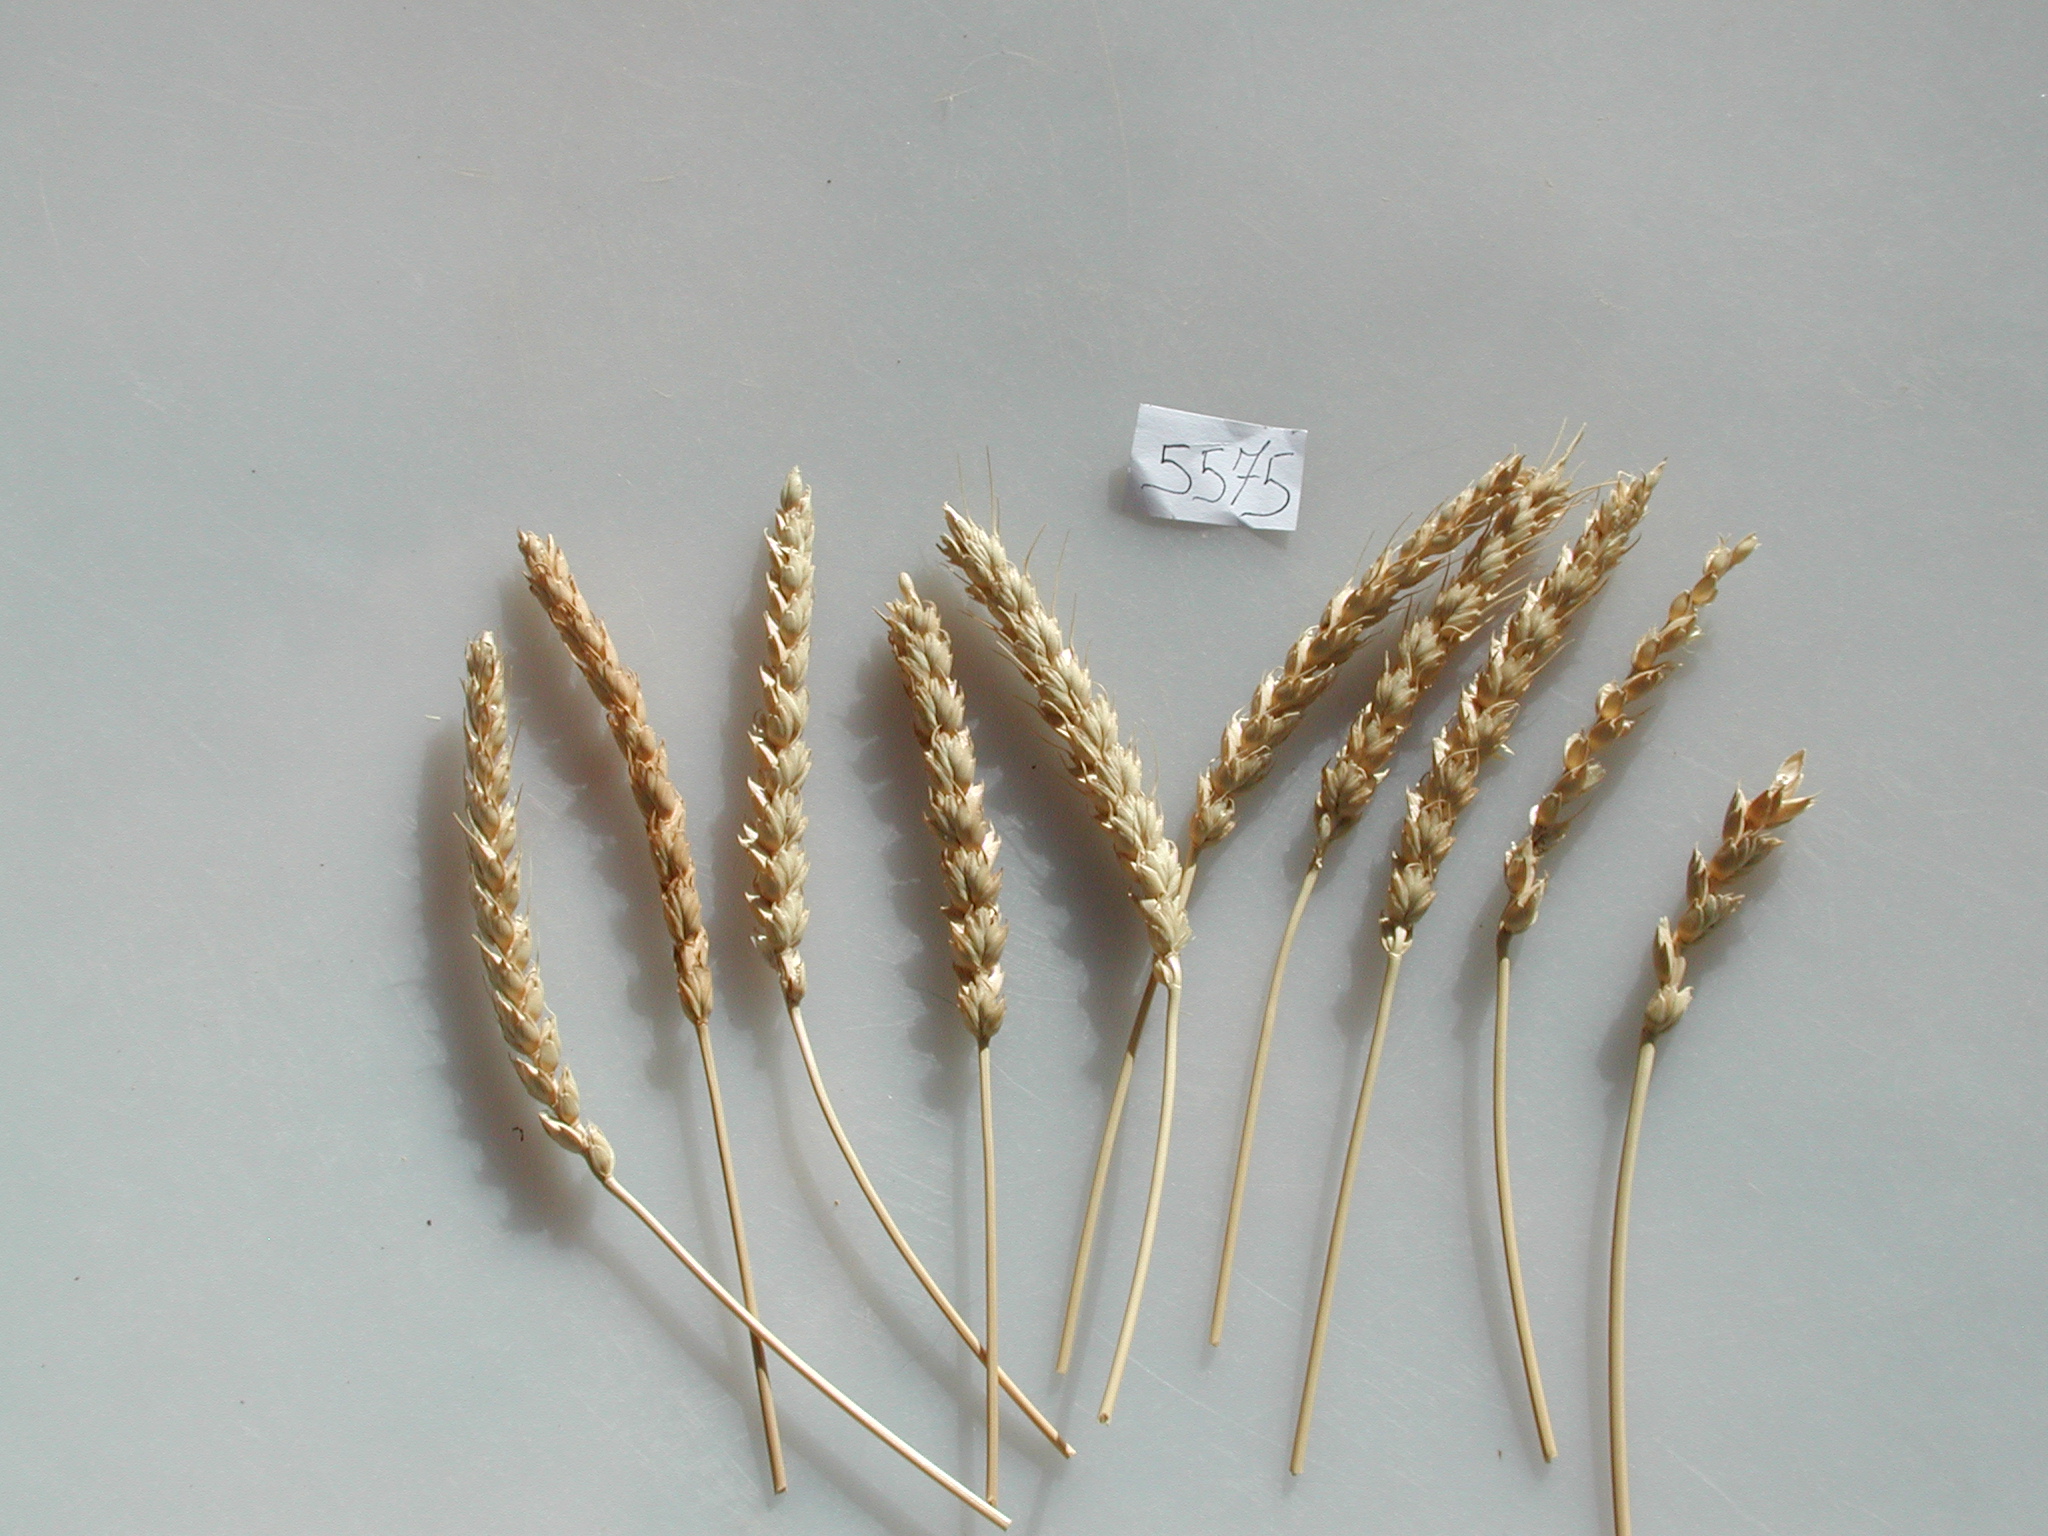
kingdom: Plantae
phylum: Tracheophyta
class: Liliopsida
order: Poales
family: Poaceae
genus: Triticum
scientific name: Triticum
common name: Wheat
